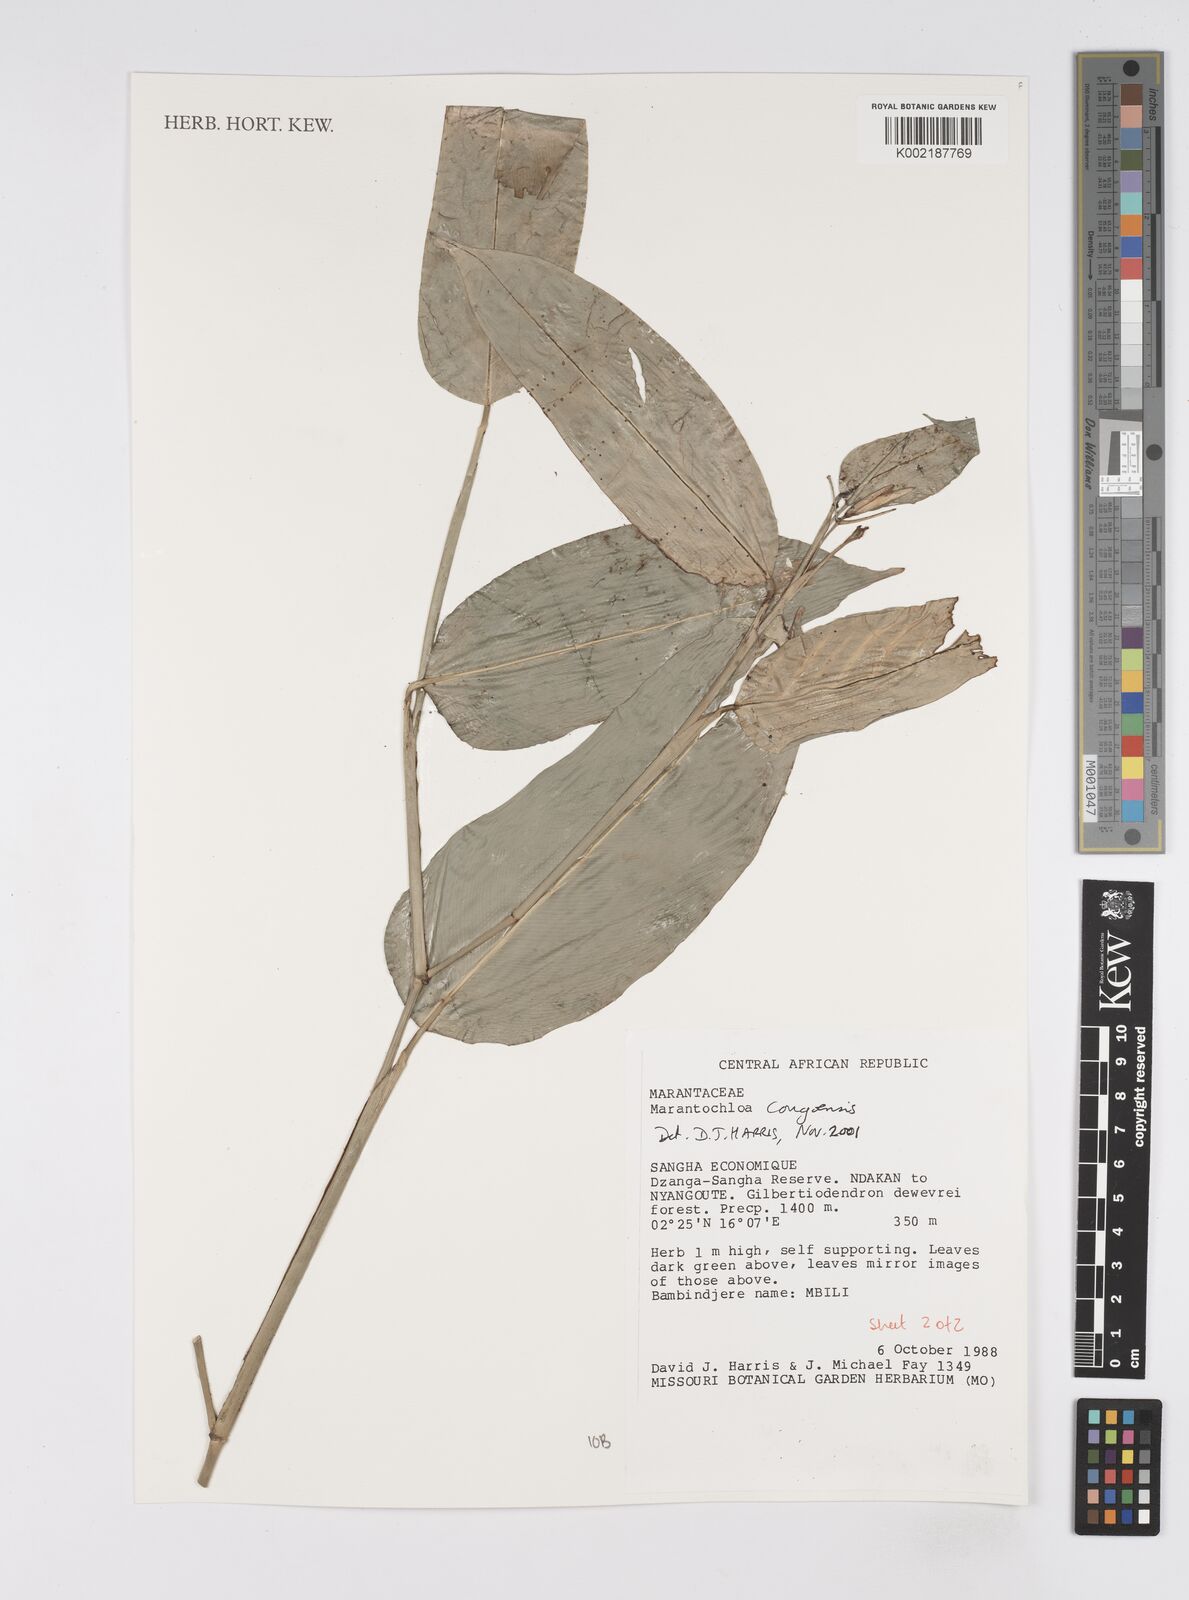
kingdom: Plantae
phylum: Tracheophyta
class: Liliopsida
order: Zingiberales
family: Marantaceae
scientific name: Marantaceae
